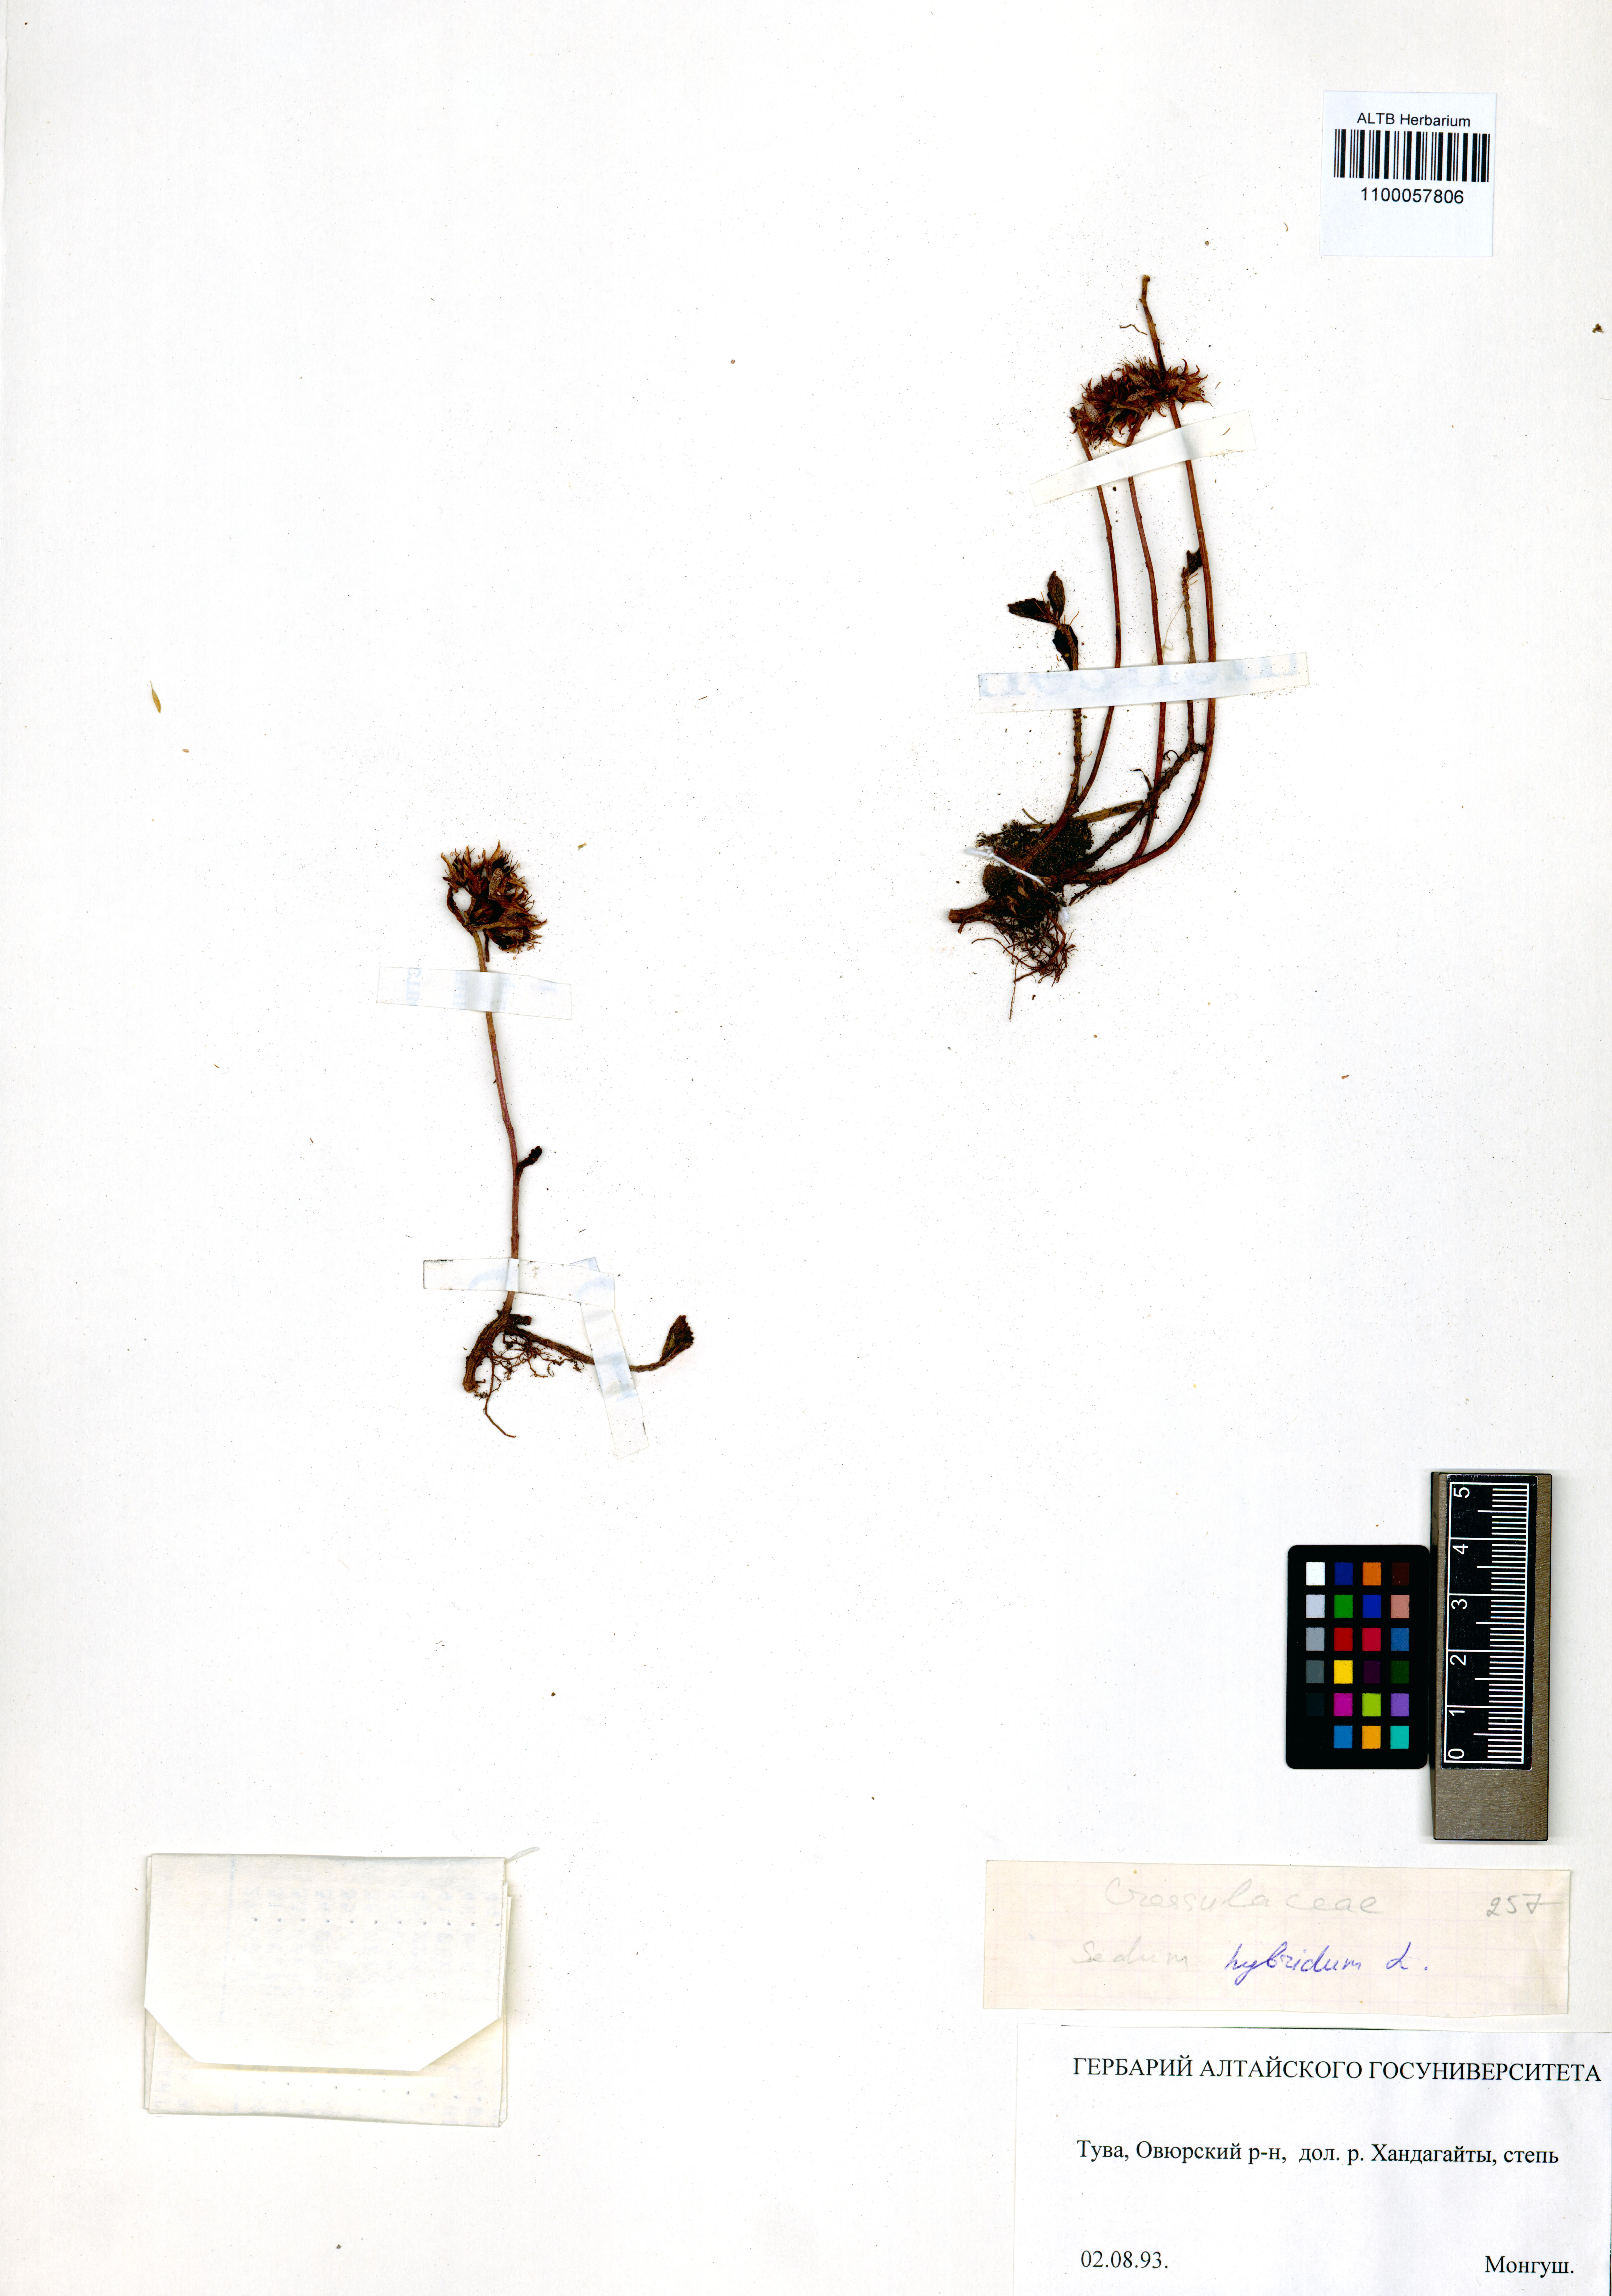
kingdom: Plantae
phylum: Tracheophyta
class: Magnoliopsida
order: Saxifragales
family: Crassulaceae
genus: Phedimus
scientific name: Phedimus hybridus
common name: Hybrid stonecrop
